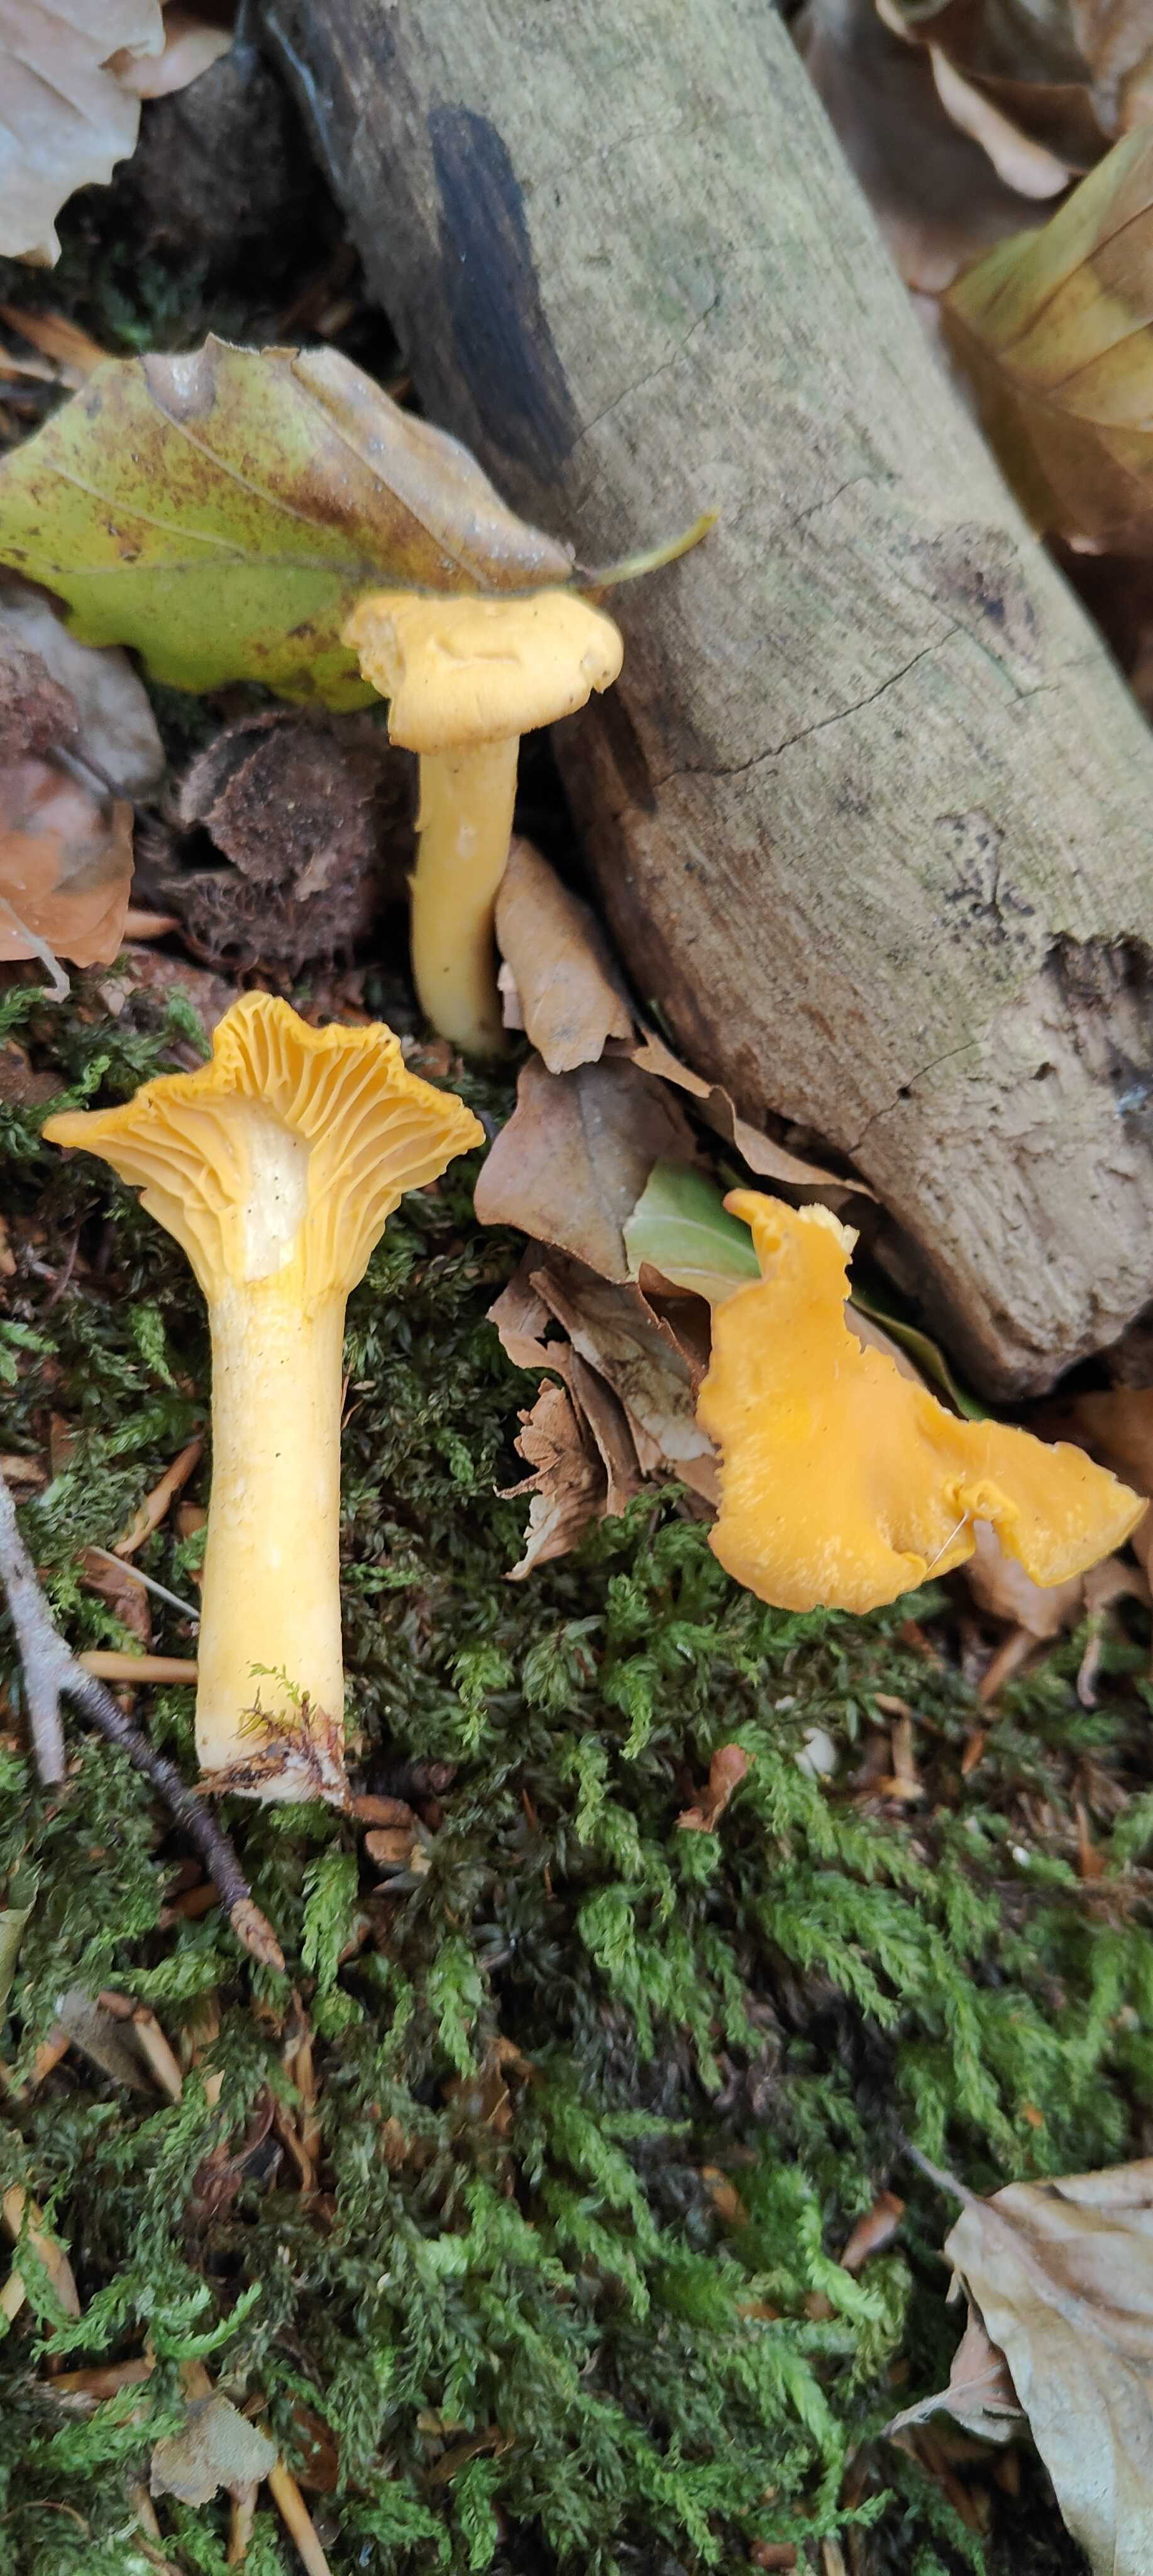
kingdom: Fungi
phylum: Basidiomycota
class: Agaricomycetes
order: Cantharellales
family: Hydnaceae
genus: Cantharellus
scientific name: Cantharellus cibarius
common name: almindelig kantarel
